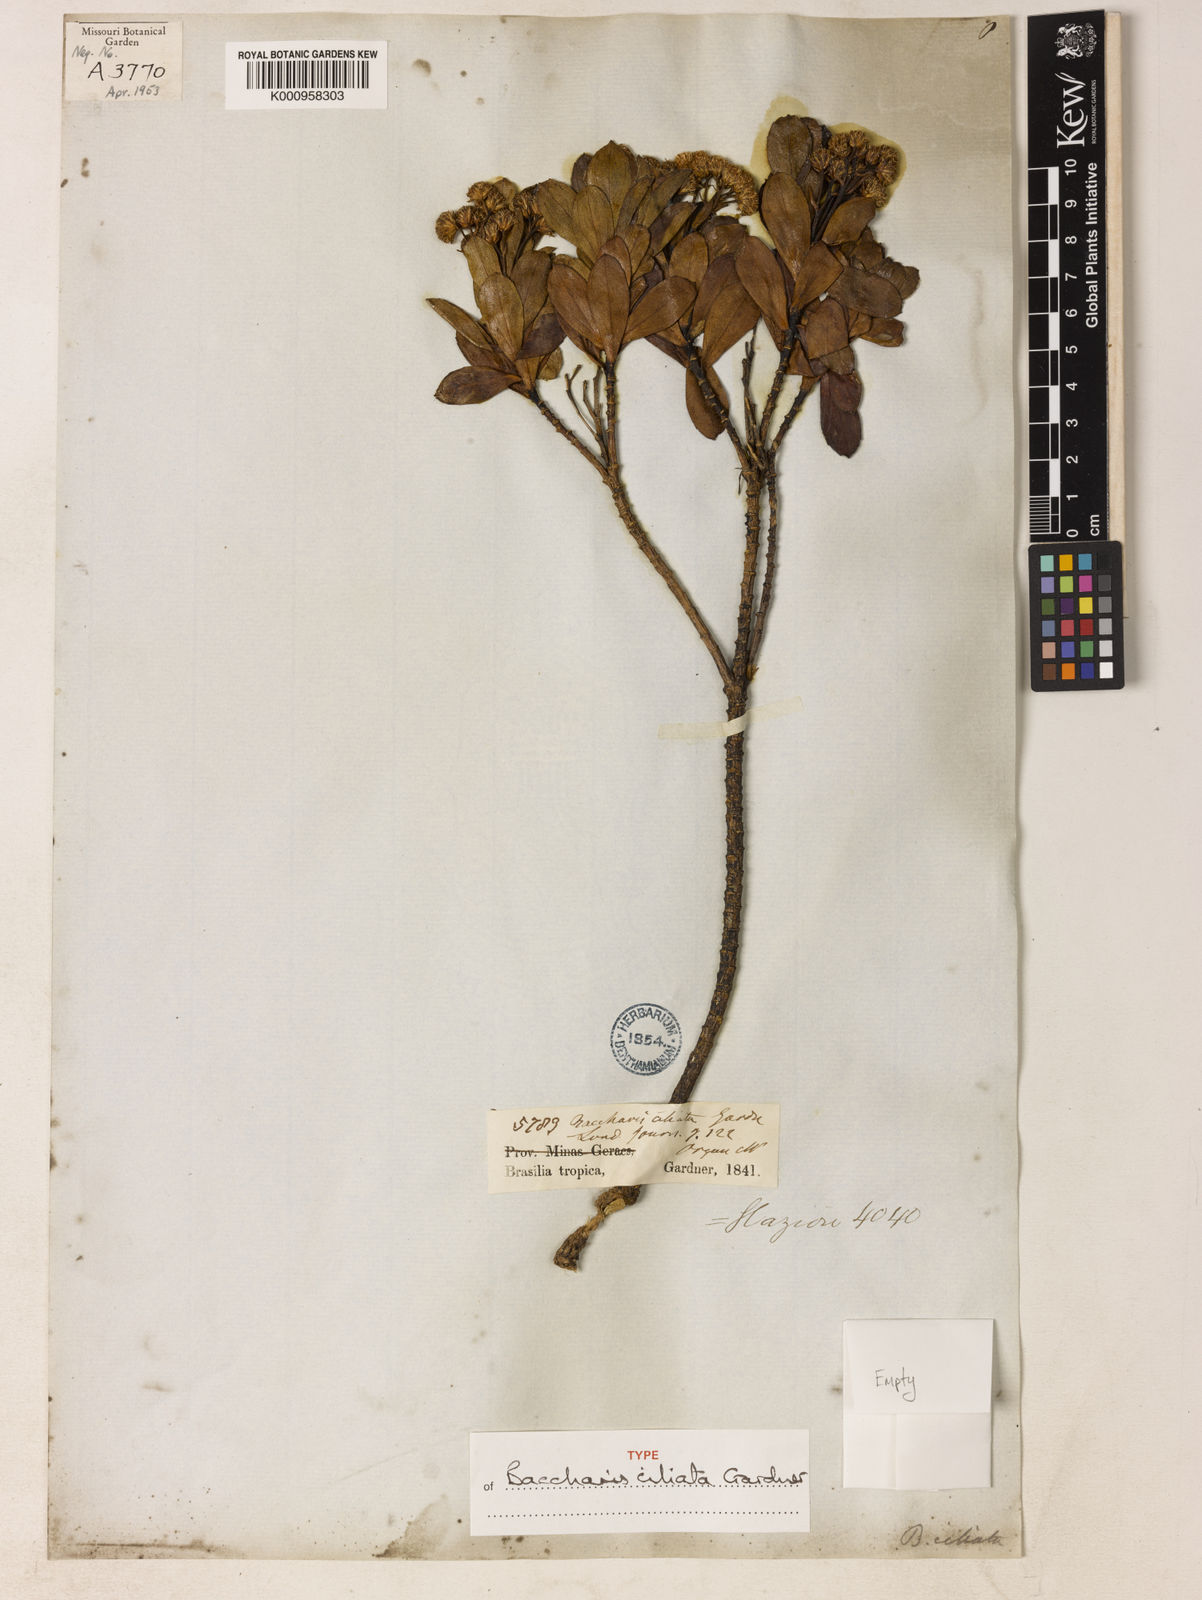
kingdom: Plantae
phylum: Tracheophyta
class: Magnoliopsida
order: Asterales
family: Asteraceae
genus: Baccharis
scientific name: Baccharis ciliata
